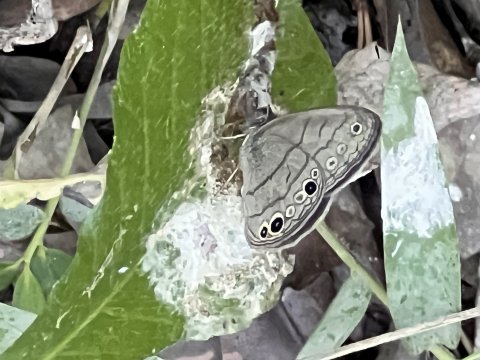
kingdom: Animalia
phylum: Arthropoda
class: Insecta
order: Lepidoptera
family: Nymphalidae
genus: Hermeuptychia
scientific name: Hermeuptychia
